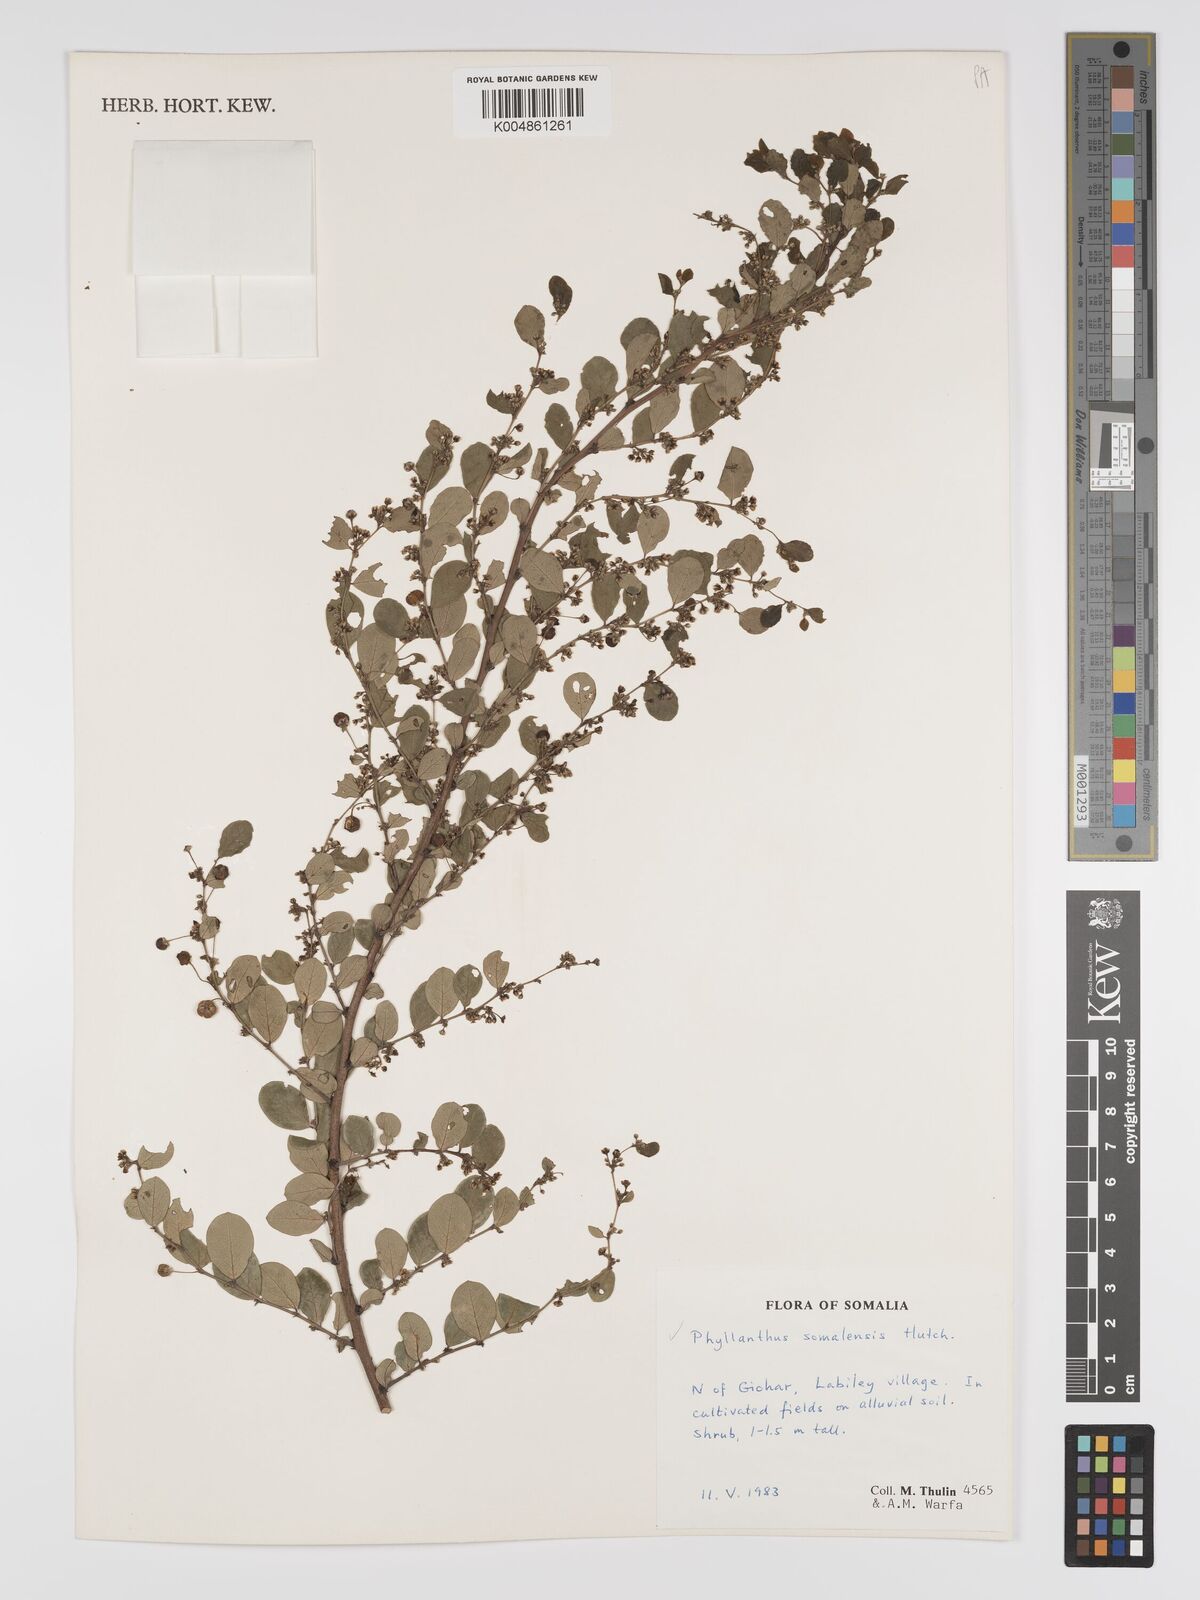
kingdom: Plantae
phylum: Tracheophyta
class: Magnoliopsida
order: Malpighiales
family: Phyllanthaceae
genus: Phyllanthus
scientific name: Phyllanthus somalensis
